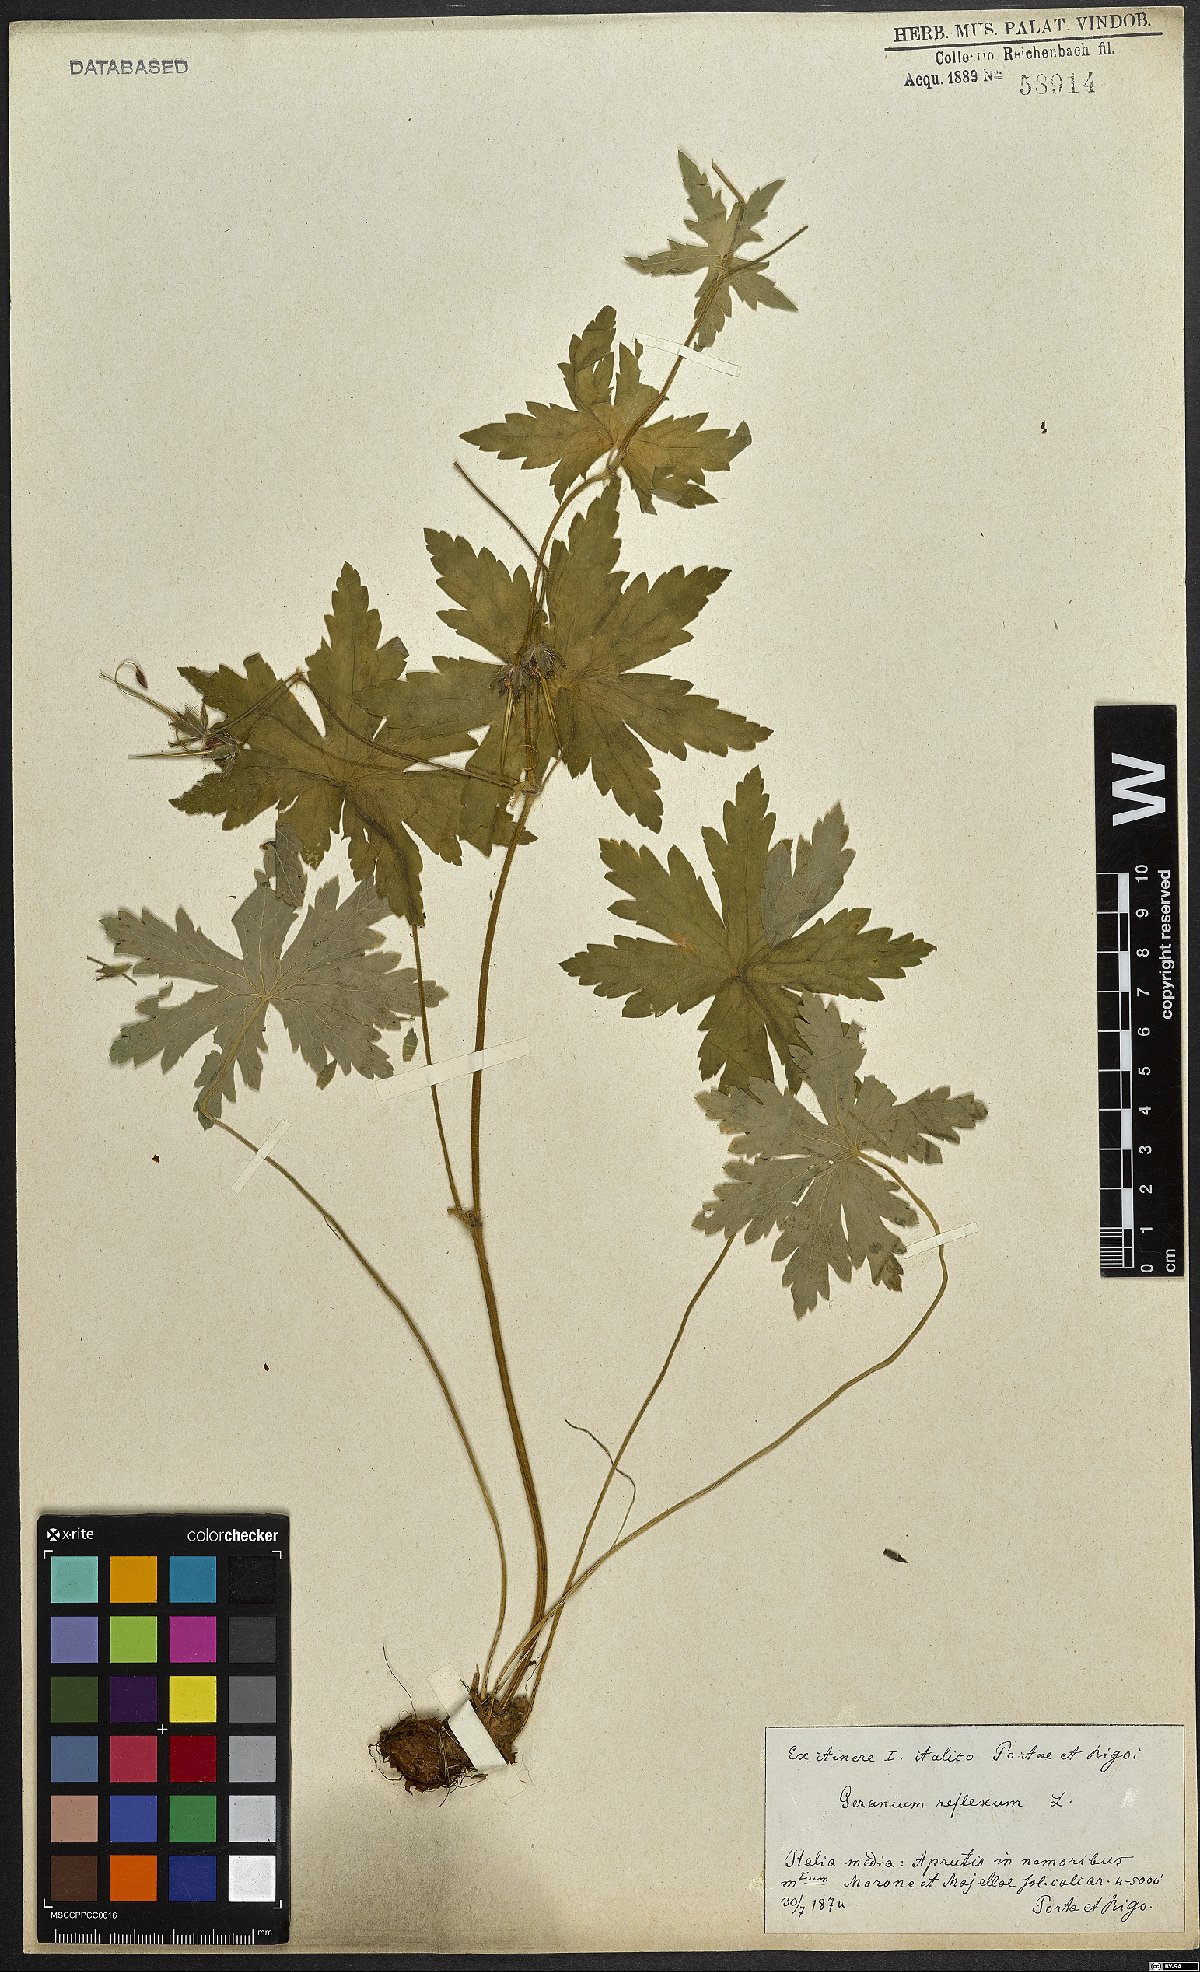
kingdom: Plantae
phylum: Tracheophyta
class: Magnoliopsida
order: Geraniales
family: Geraniaceae
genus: Geranium
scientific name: Geranium reflexum
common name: Reflexed crane's-bill
